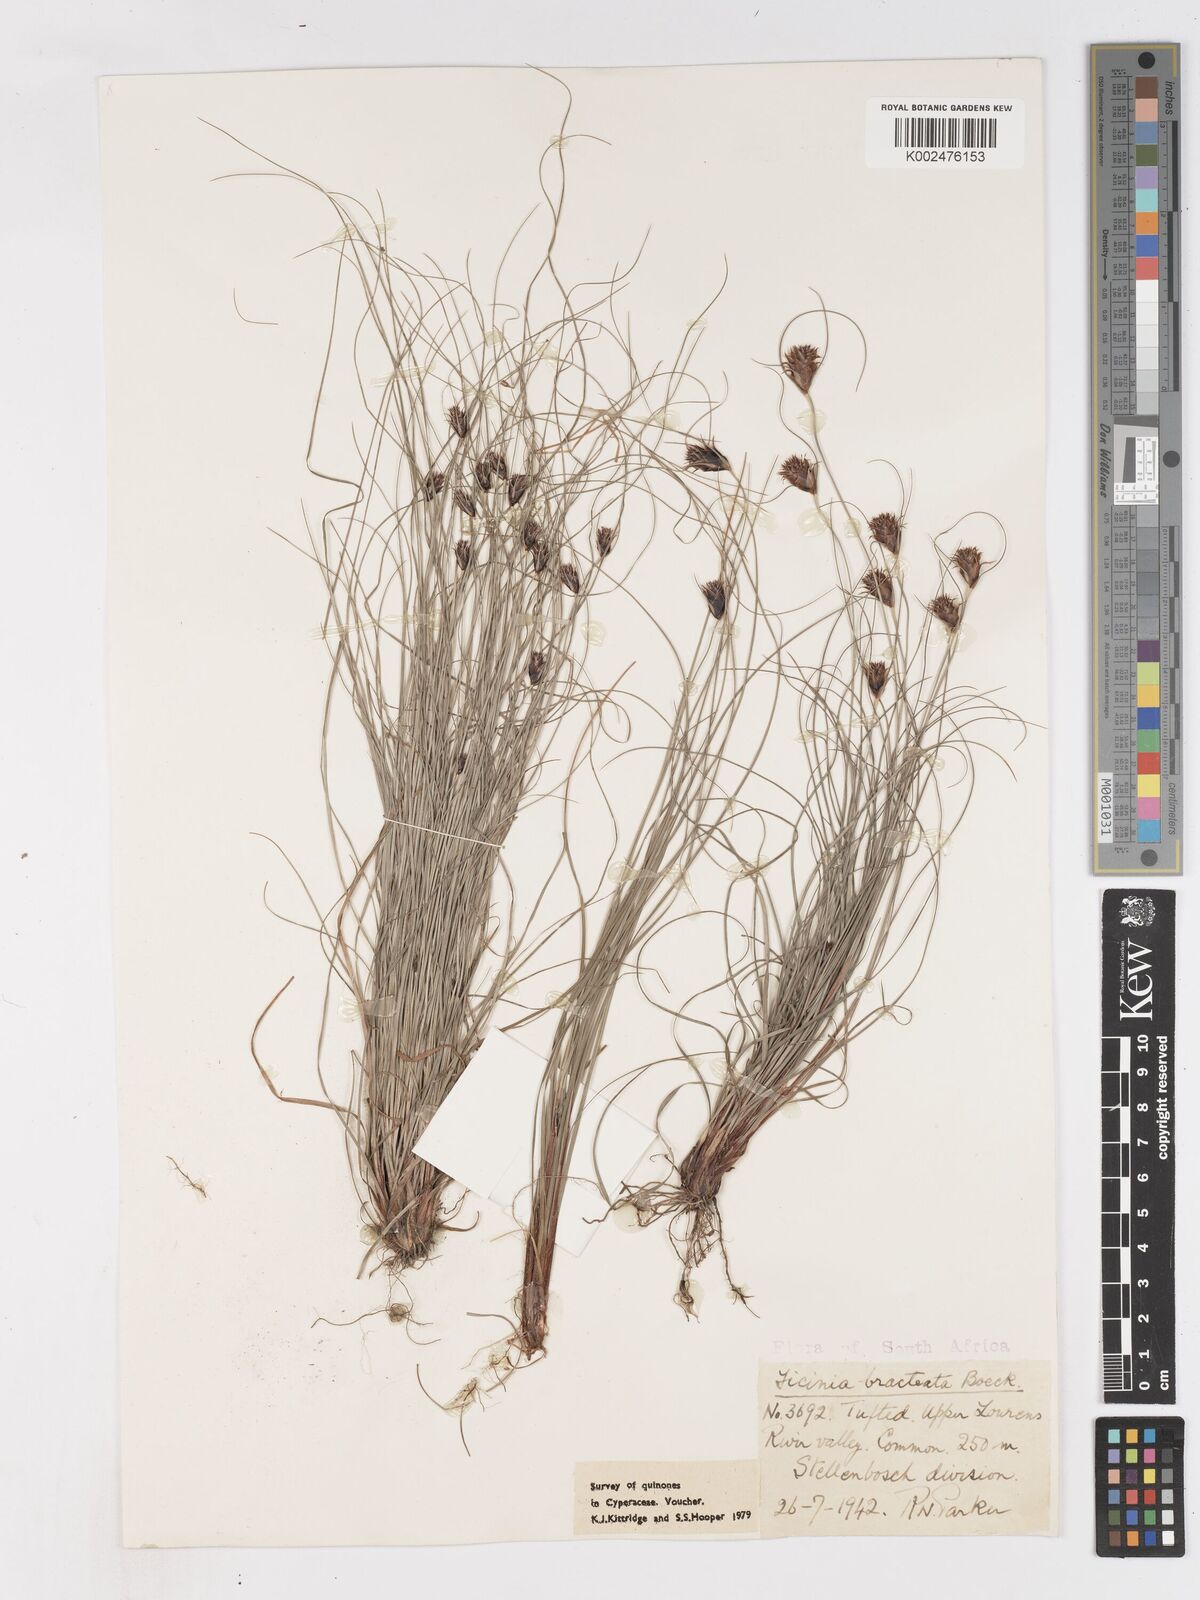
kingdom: Plantae
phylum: Tracheophyta
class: Liliopsida
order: Poales
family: Cyperaceae
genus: Ficinia
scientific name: Ficinia nigrescens
